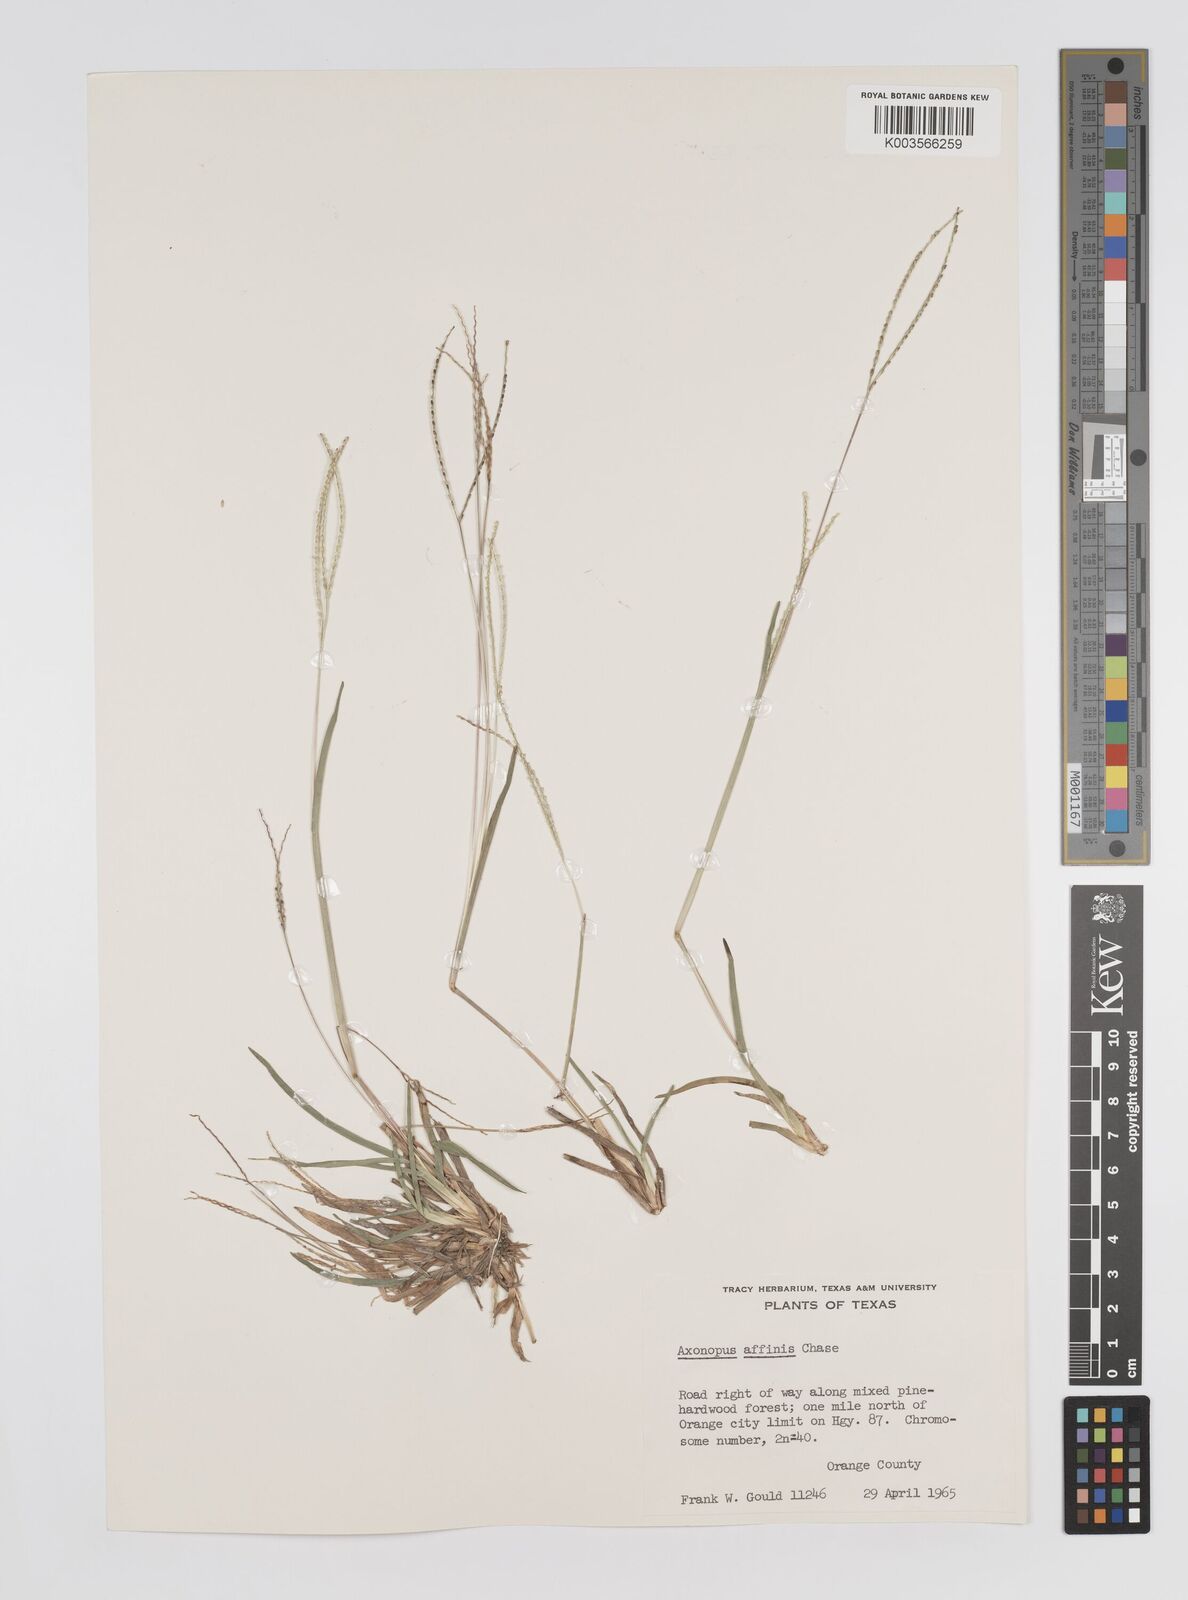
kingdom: Plantae
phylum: Tracheophyta
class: Liliopsida
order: Poales
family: Poaceae
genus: Axonopus
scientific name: Axonopus fissifolius
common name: Common carpetgrass
